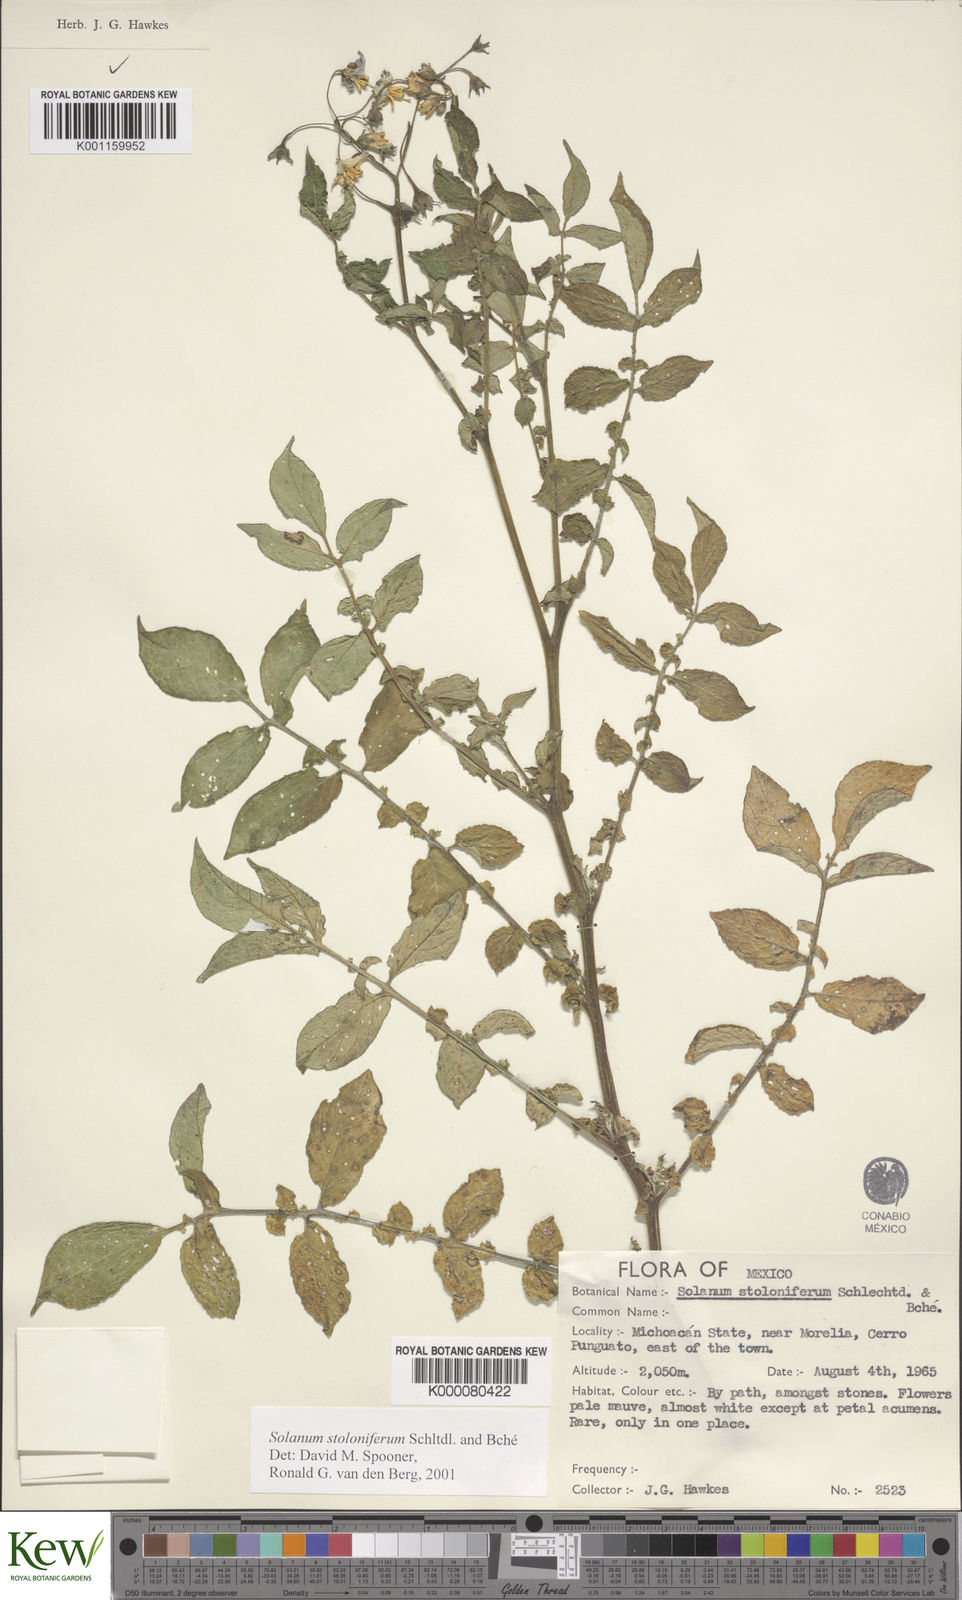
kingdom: Plantae
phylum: Tracheophyta
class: Magnoliopsida
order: Solanales
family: Solanaceae
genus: Solanum
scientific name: Solanum stoloniferum
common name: Fendler's nighshade
